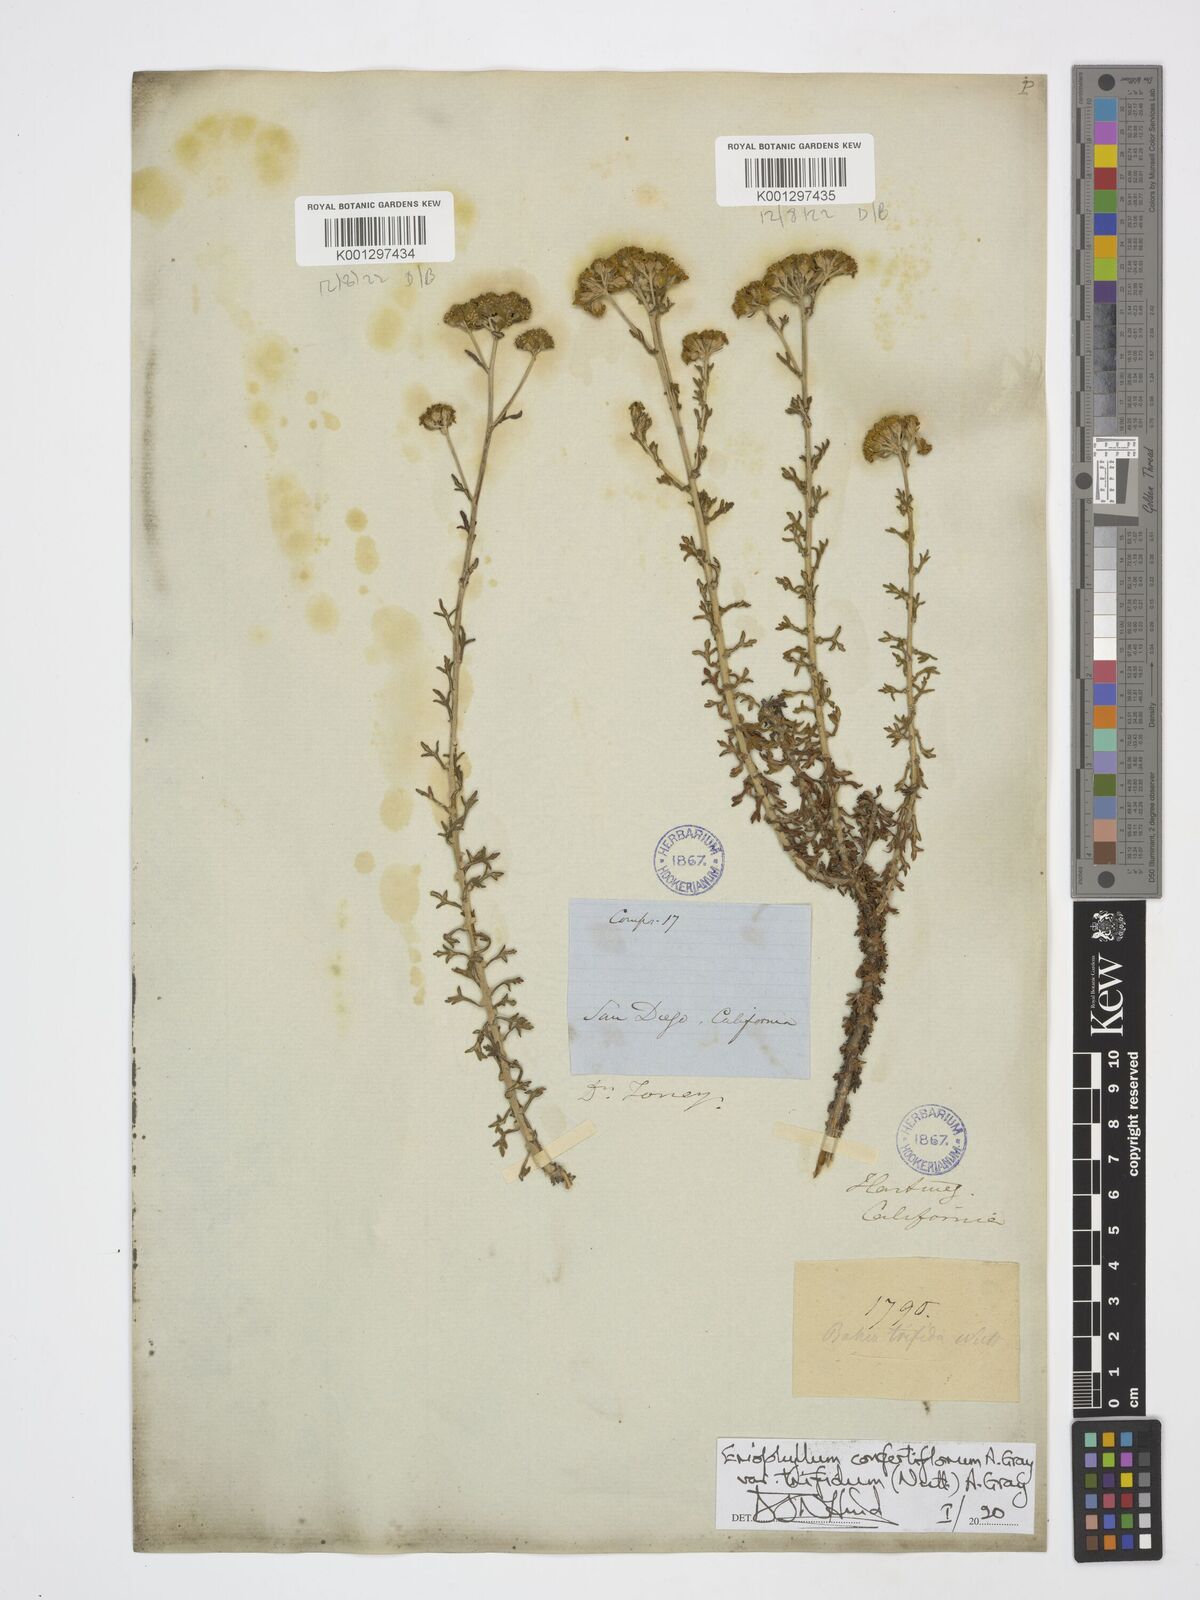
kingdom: Plantae
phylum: Tracheophyta
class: Magnoliopsida
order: Asterales
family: Asteraceae
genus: Eriophyllum
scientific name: Eriophyllum confertiflorum
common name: Golden-yarrow
